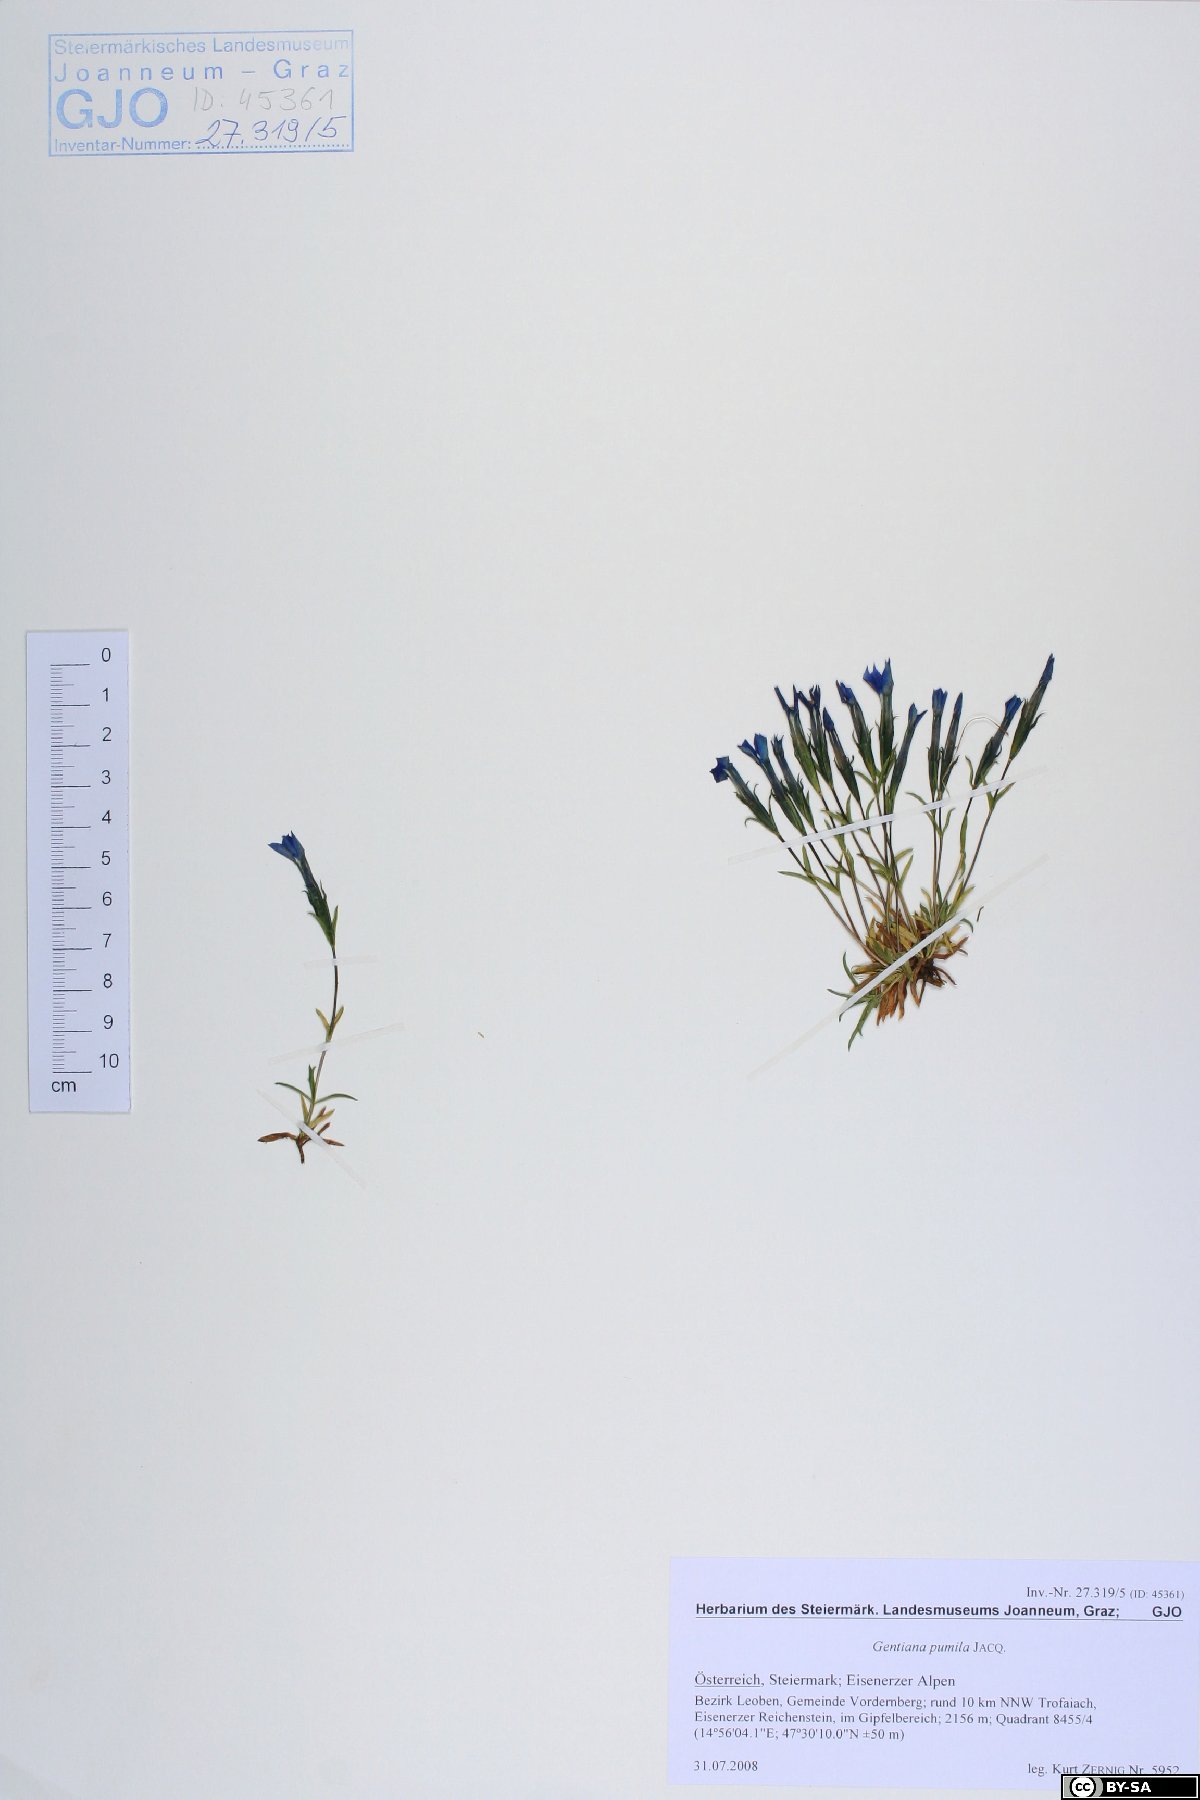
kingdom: Plantae
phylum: Tracheophyta
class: Magnoliopsida
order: Gentianales
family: Gentianaceae
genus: Gentiana
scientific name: Gentiana pumila
